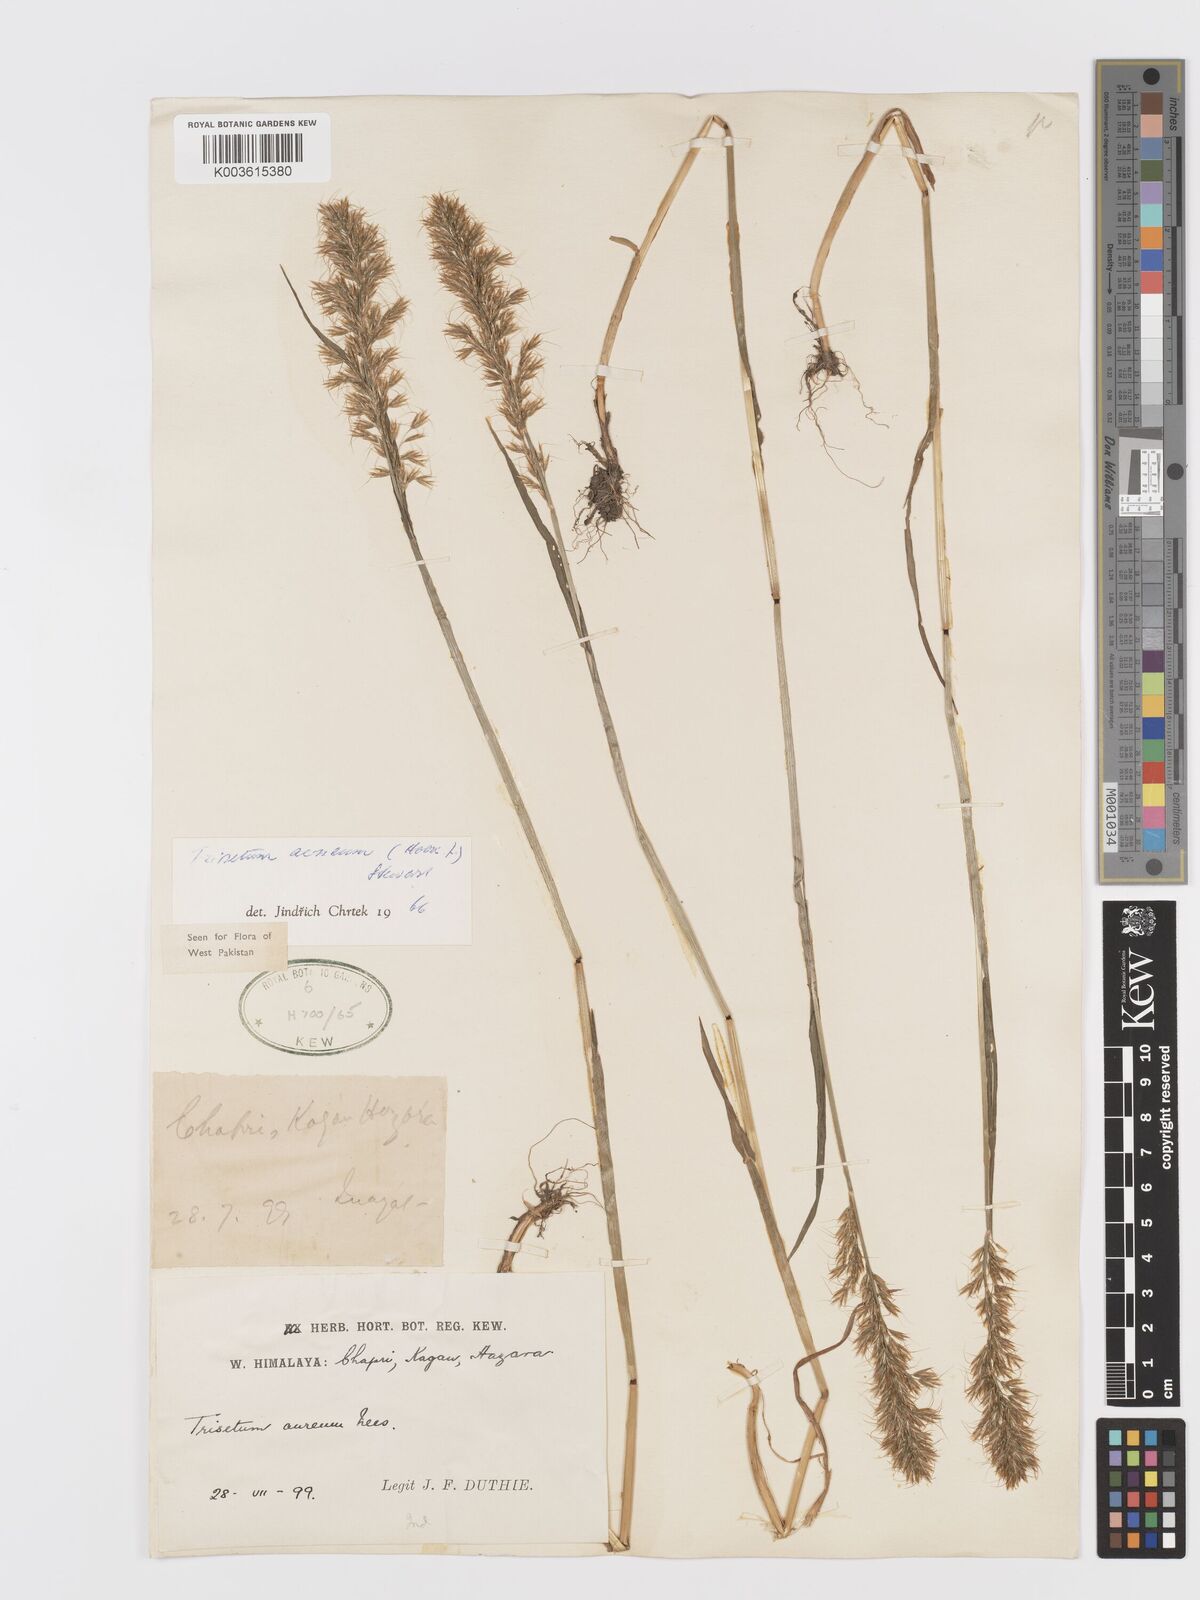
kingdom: Plantae
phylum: Tracheophyta
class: Liliopsida
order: Poales
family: Poaceae
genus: Sibirotrisetum
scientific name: Sibirotrisetum aeneum
